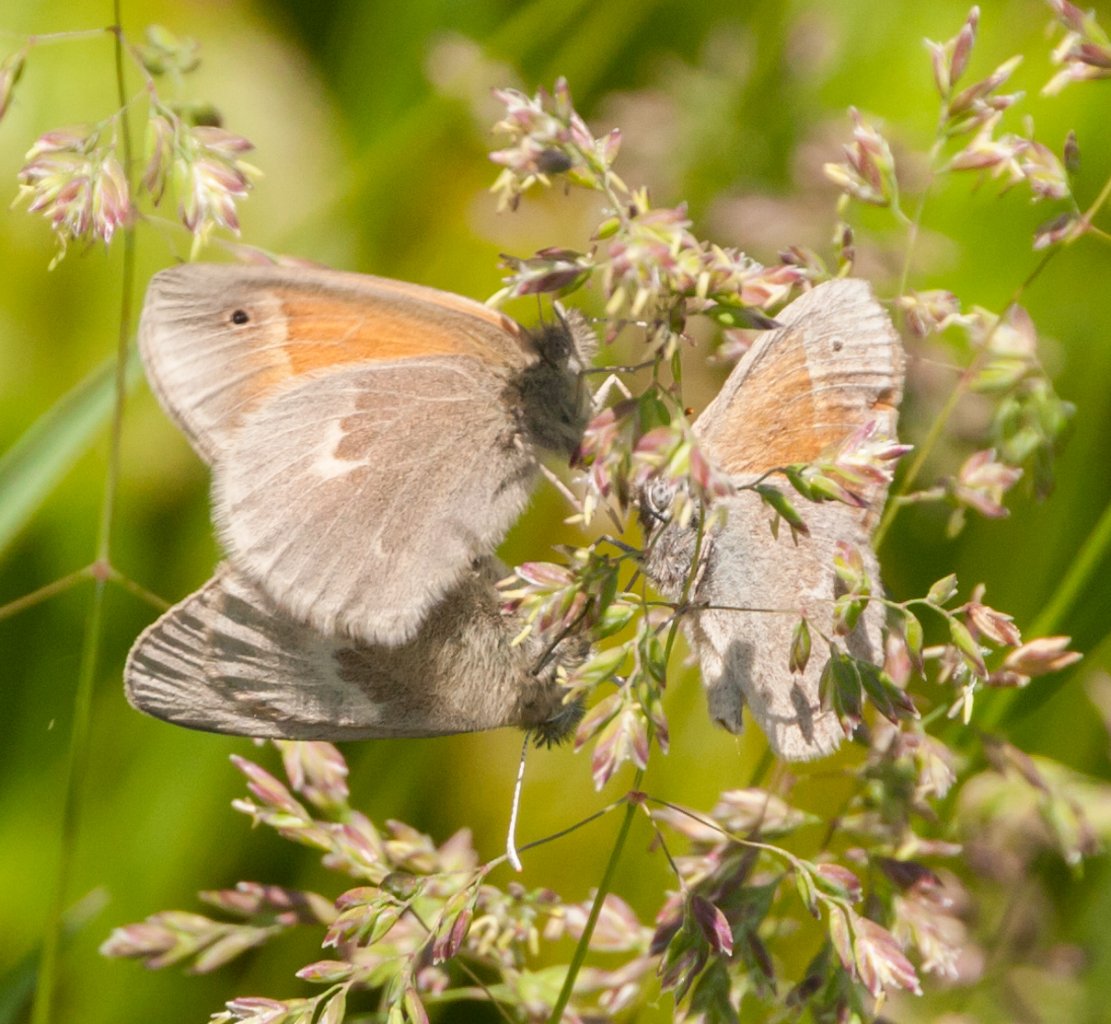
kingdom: Animalia
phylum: Arthropoda
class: Insecta
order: Lepidoptera
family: Nymphalidae
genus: Coenonympha
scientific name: Coenonympha tullia
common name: Large Heath
